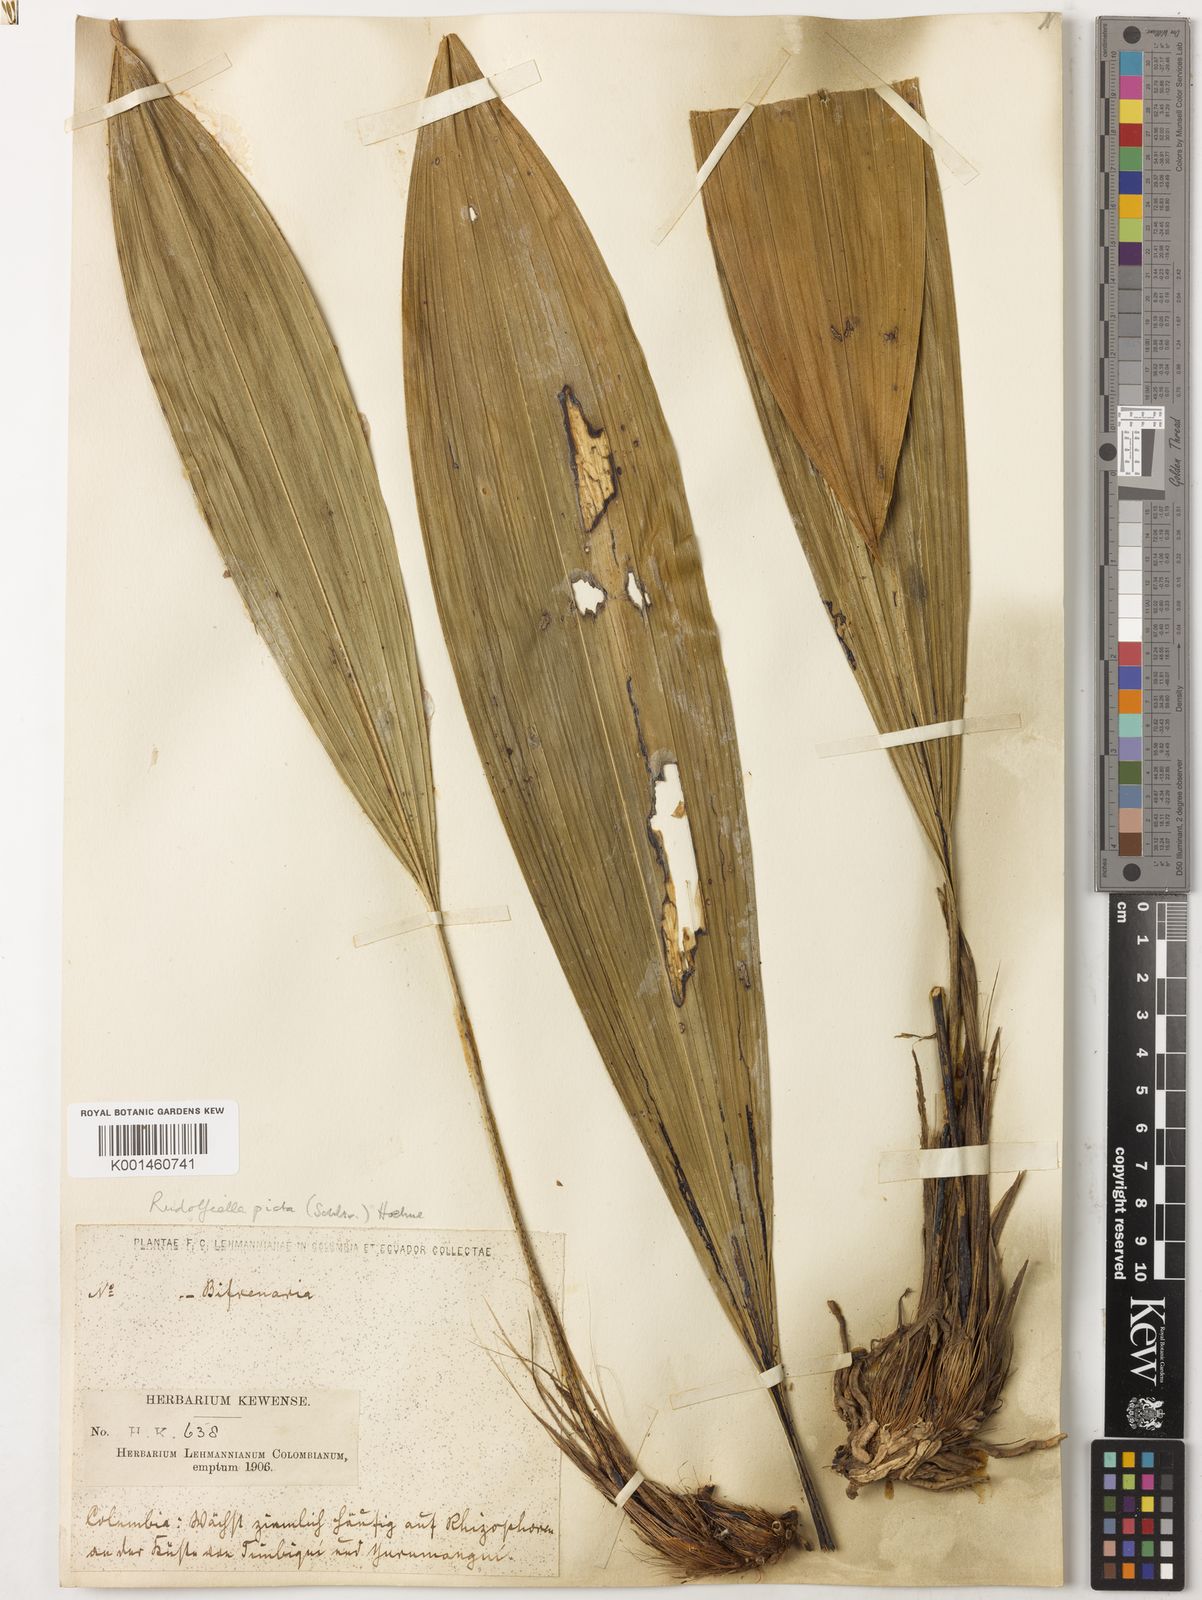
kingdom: Plantae
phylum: Tracheophyta
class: Liliopsida
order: Asparagales
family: Orchidaceae
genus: Rudolfiella
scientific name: Rudolfiella picta
